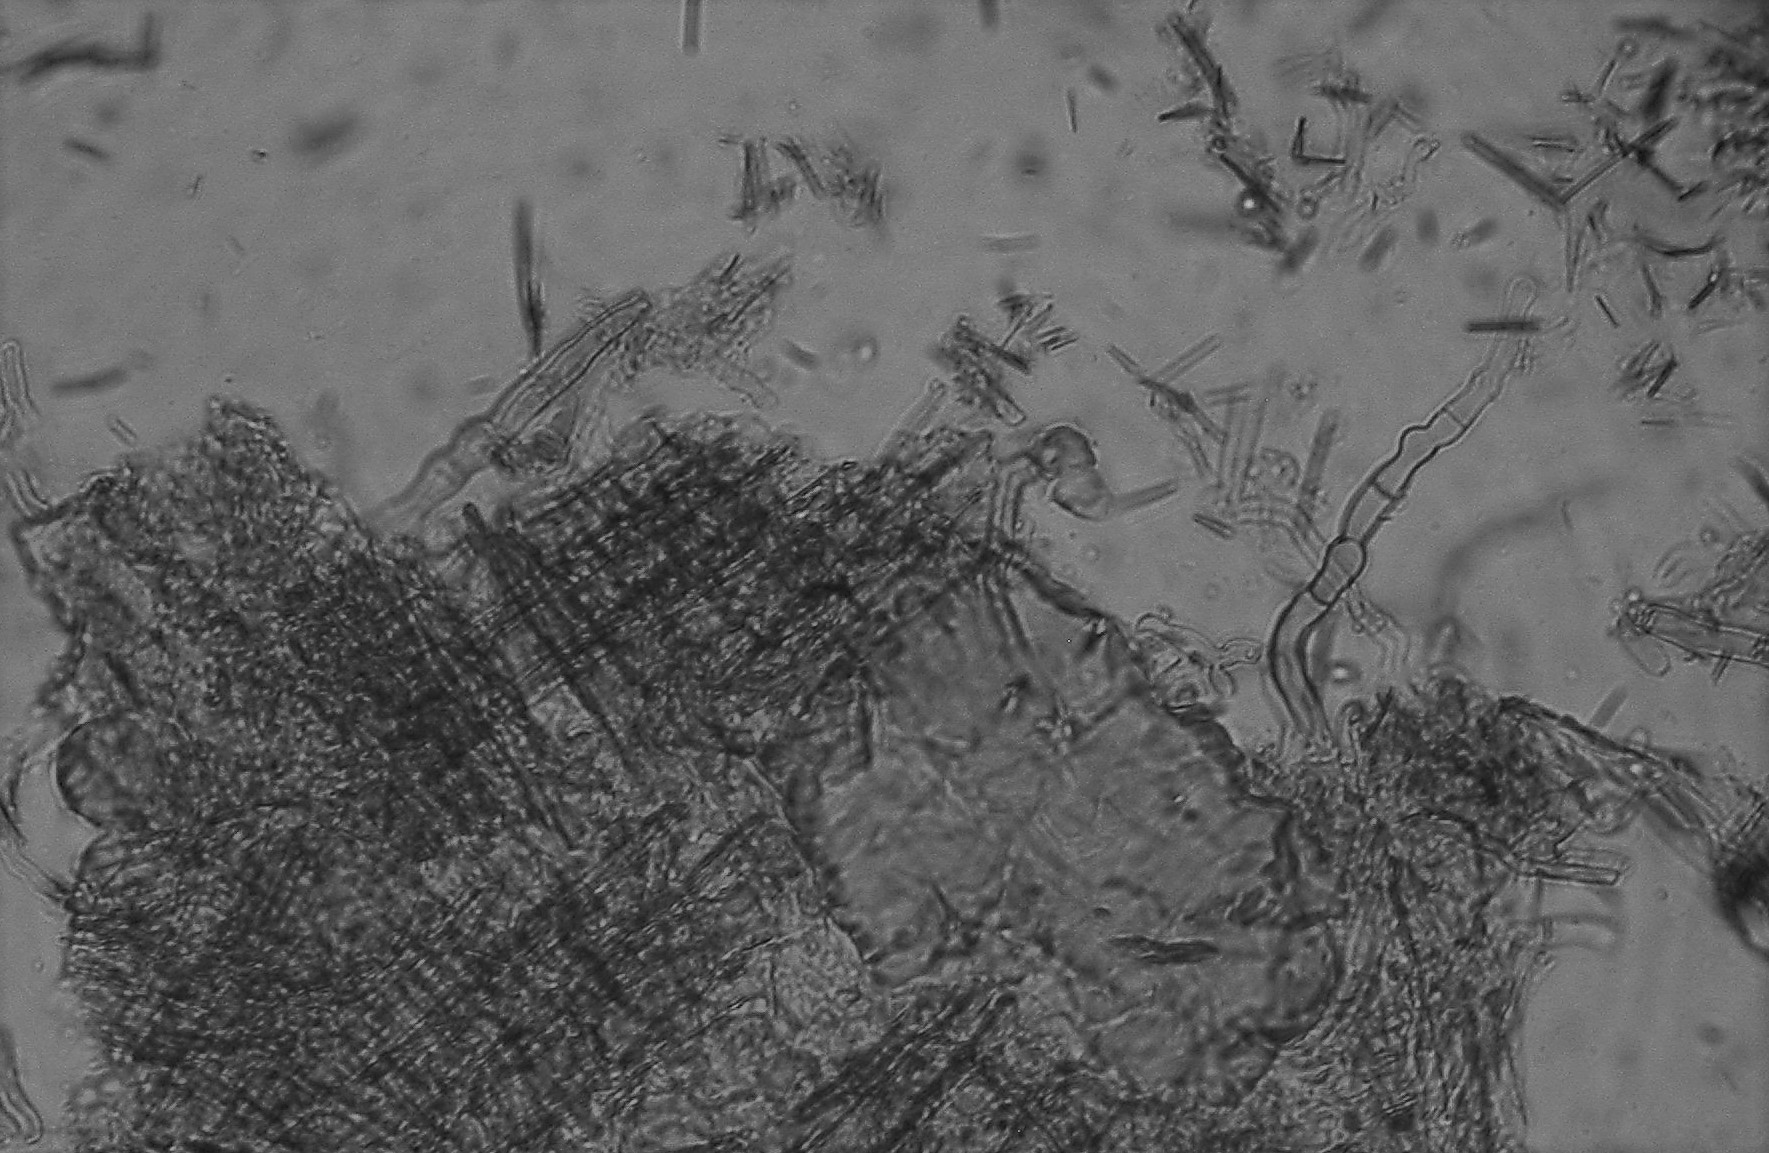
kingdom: Fungi
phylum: Basidiomycota
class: Agaricomycetes
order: Hymenochaetales
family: Hyphodontiaceae
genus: Hyphodontia
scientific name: Hyphodontia pallidula
